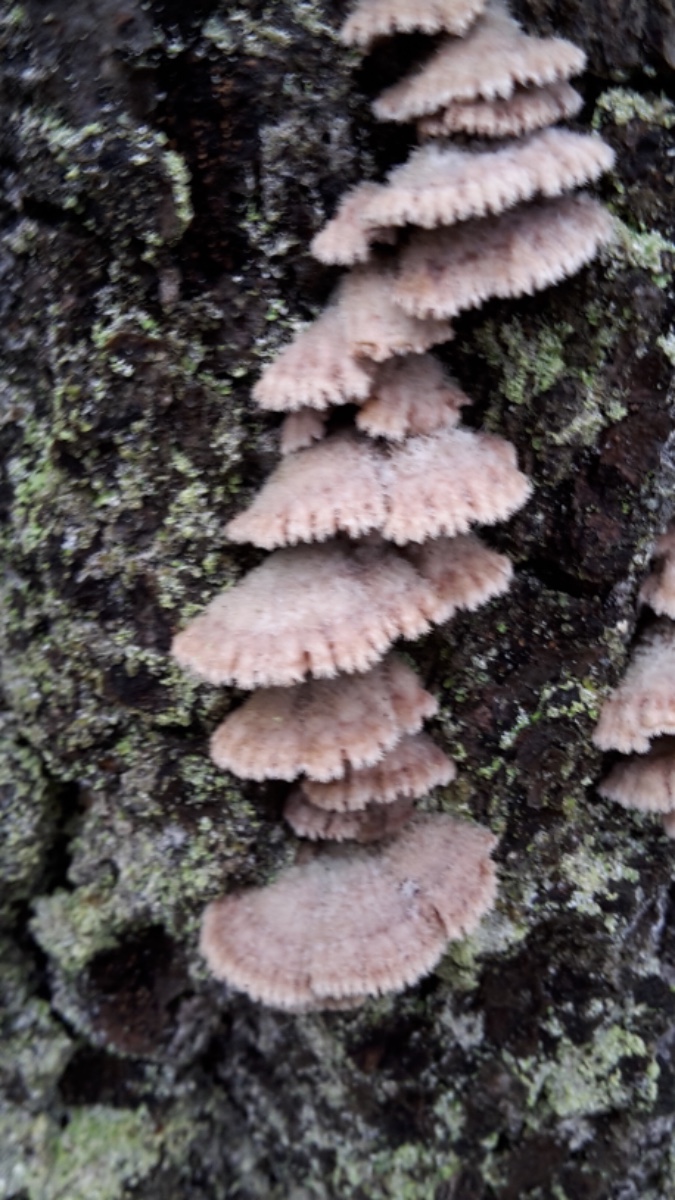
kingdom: Fungi
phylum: Basidiomycota
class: Agaricomycetes
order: Agaricales
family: Schizophyllaceae
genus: Schizophyllum
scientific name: Schizophyllum commune
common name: kløvblad
